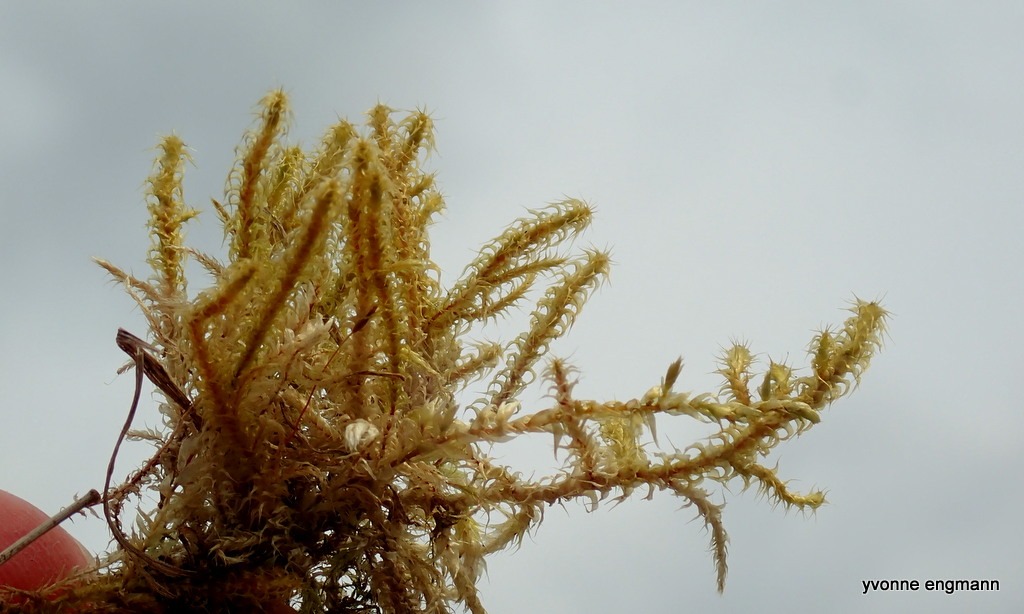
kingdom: Plantae
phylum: Bryophyta
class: Bryopsida
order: Hypnales
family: Hylocomiaceae
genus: Rhytidiadelphus
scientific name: Rhytidiadelphus squarrosus
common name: Plæne-kransemos
